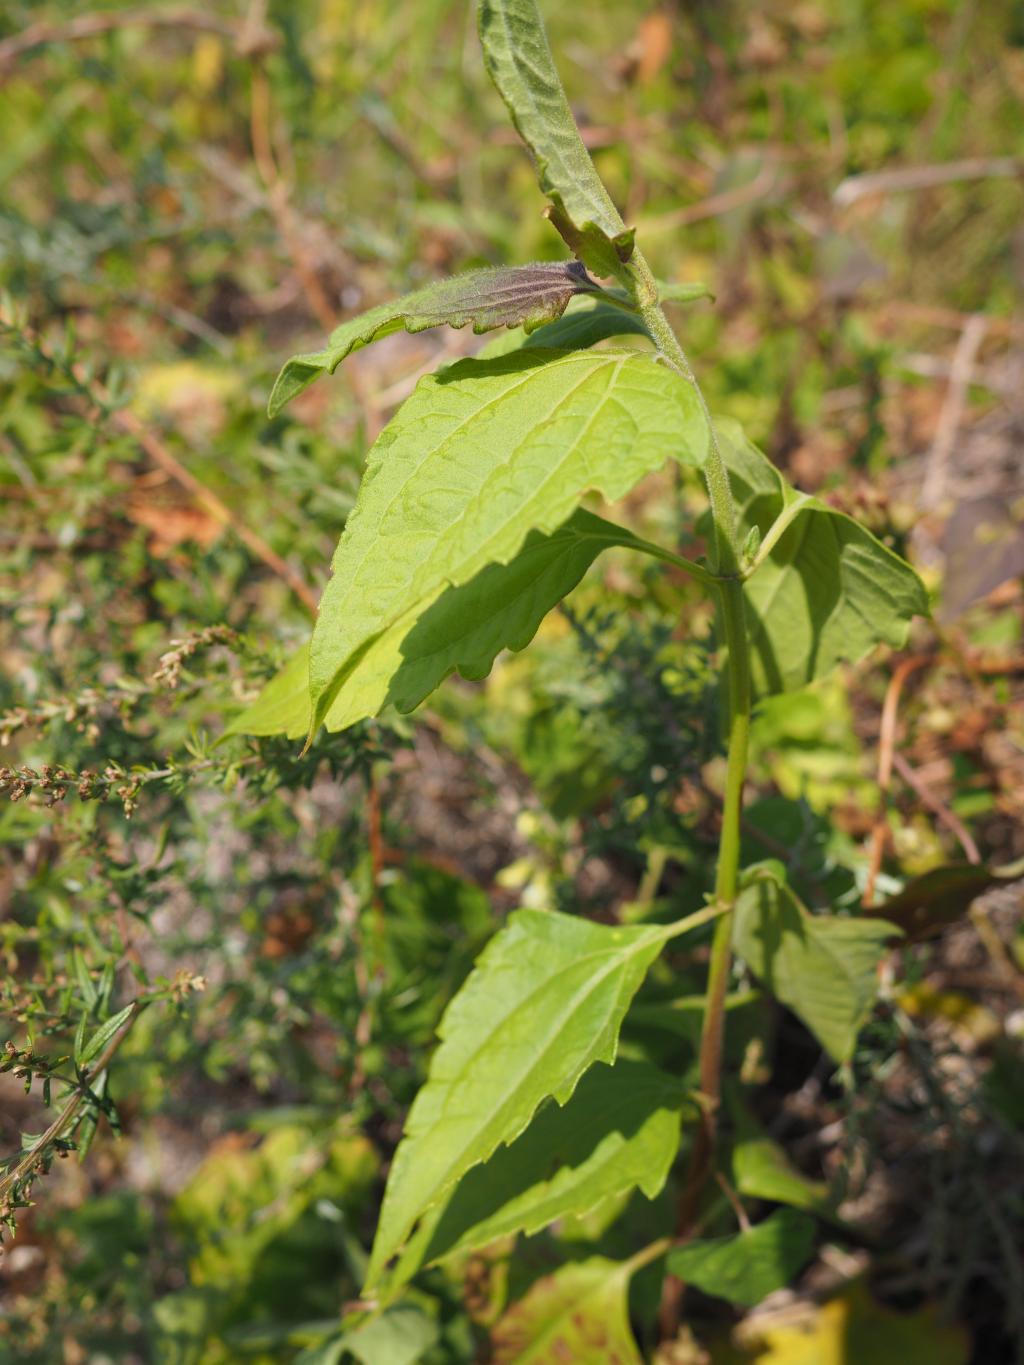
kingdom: Plantae
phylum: Tracheophyta
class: Magnoliopsida
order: Asterales
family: Asteraceae
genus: Chromolaena
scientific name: Chromolaena odorata
